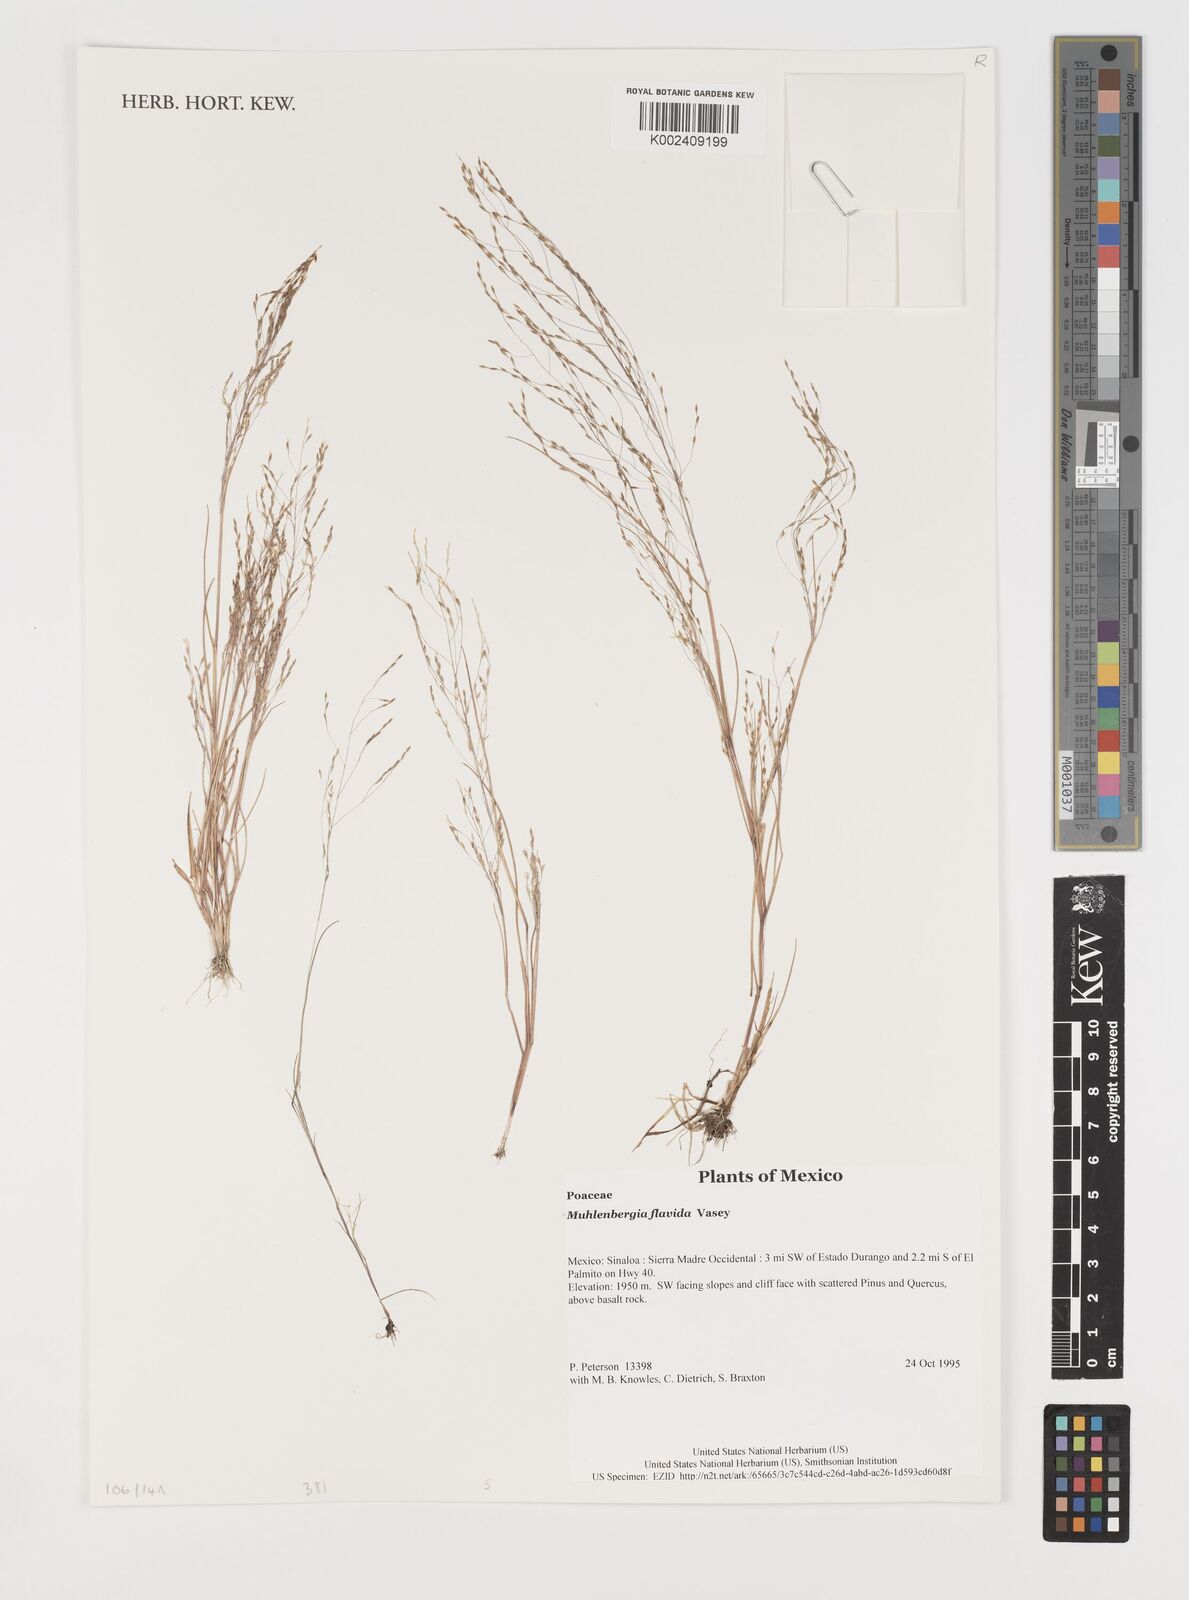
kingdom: Plantae
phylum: Tracheophyta
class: Liliopsida
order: Poales
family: Poaceae
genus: Muhlenbergia
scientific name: Muhlenbergia flavida
